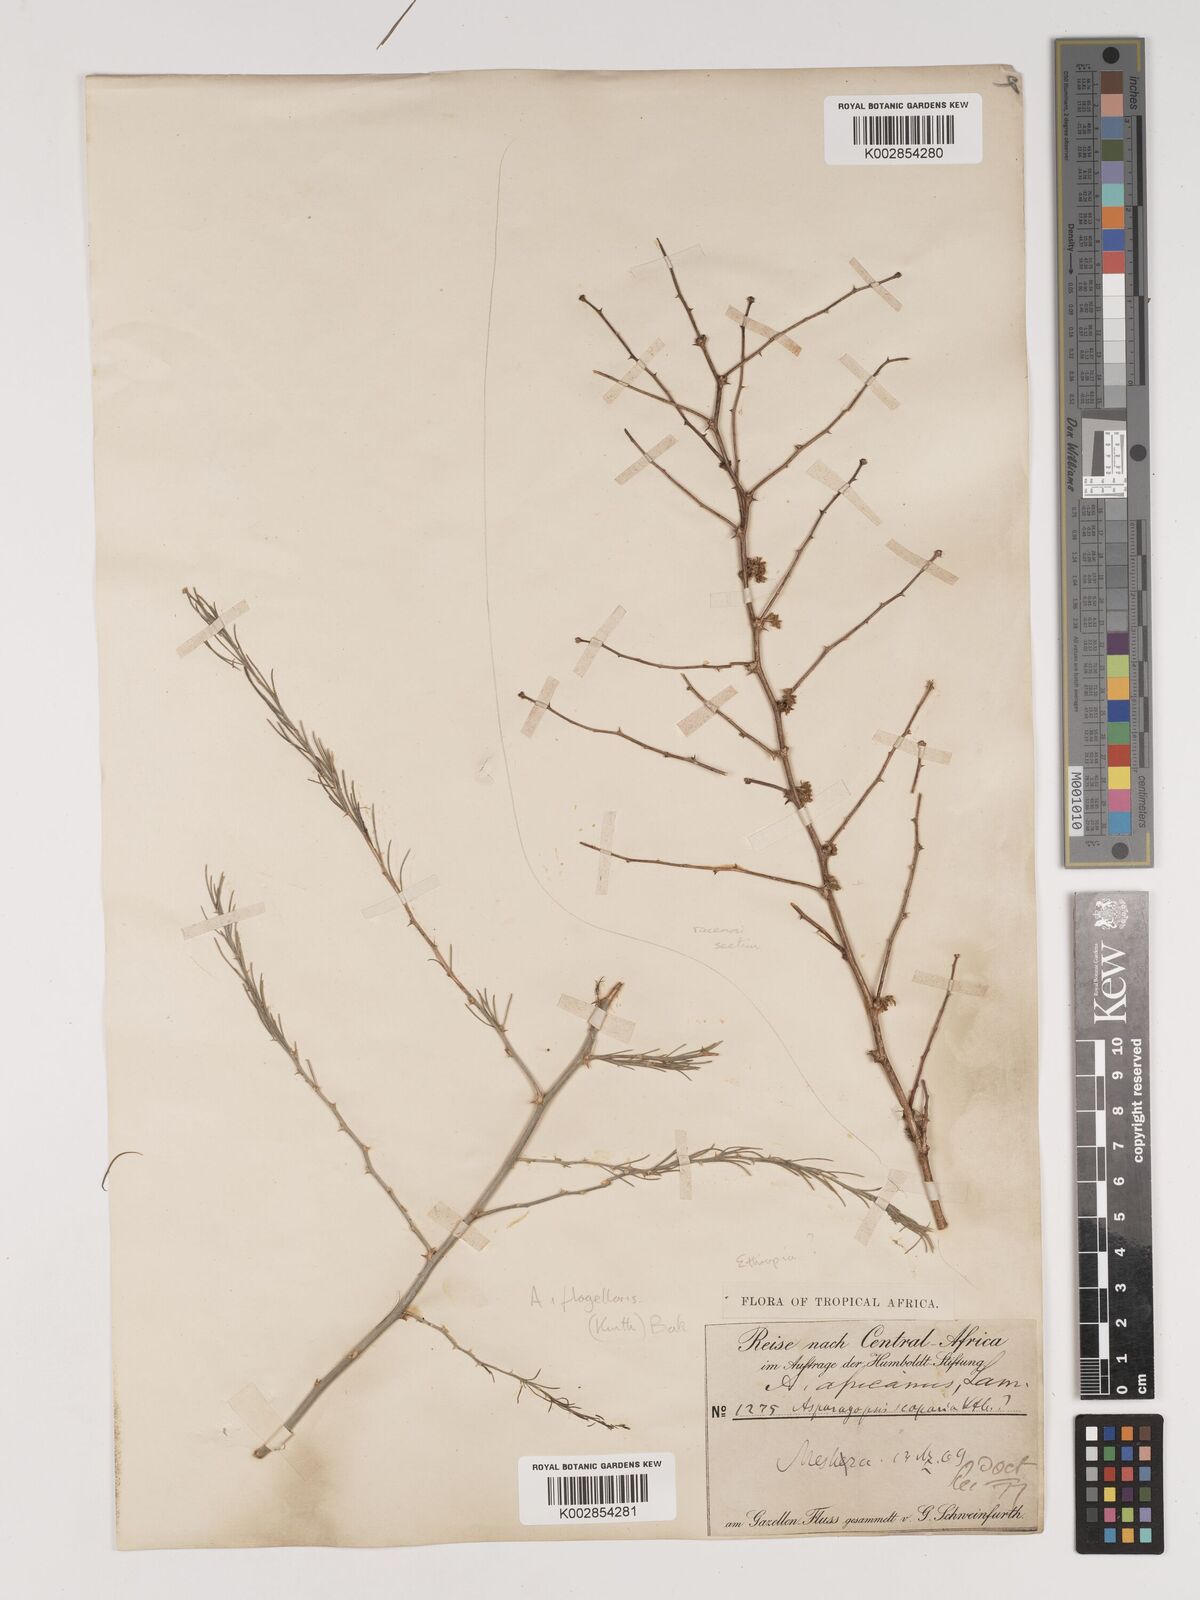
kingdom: Plantae
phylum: Tracheophyta
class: Liliopsida
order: Asparagales
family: Asparagaceae
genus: Asparagus
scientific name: Asparagus africanus
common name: Asparagus-fern
